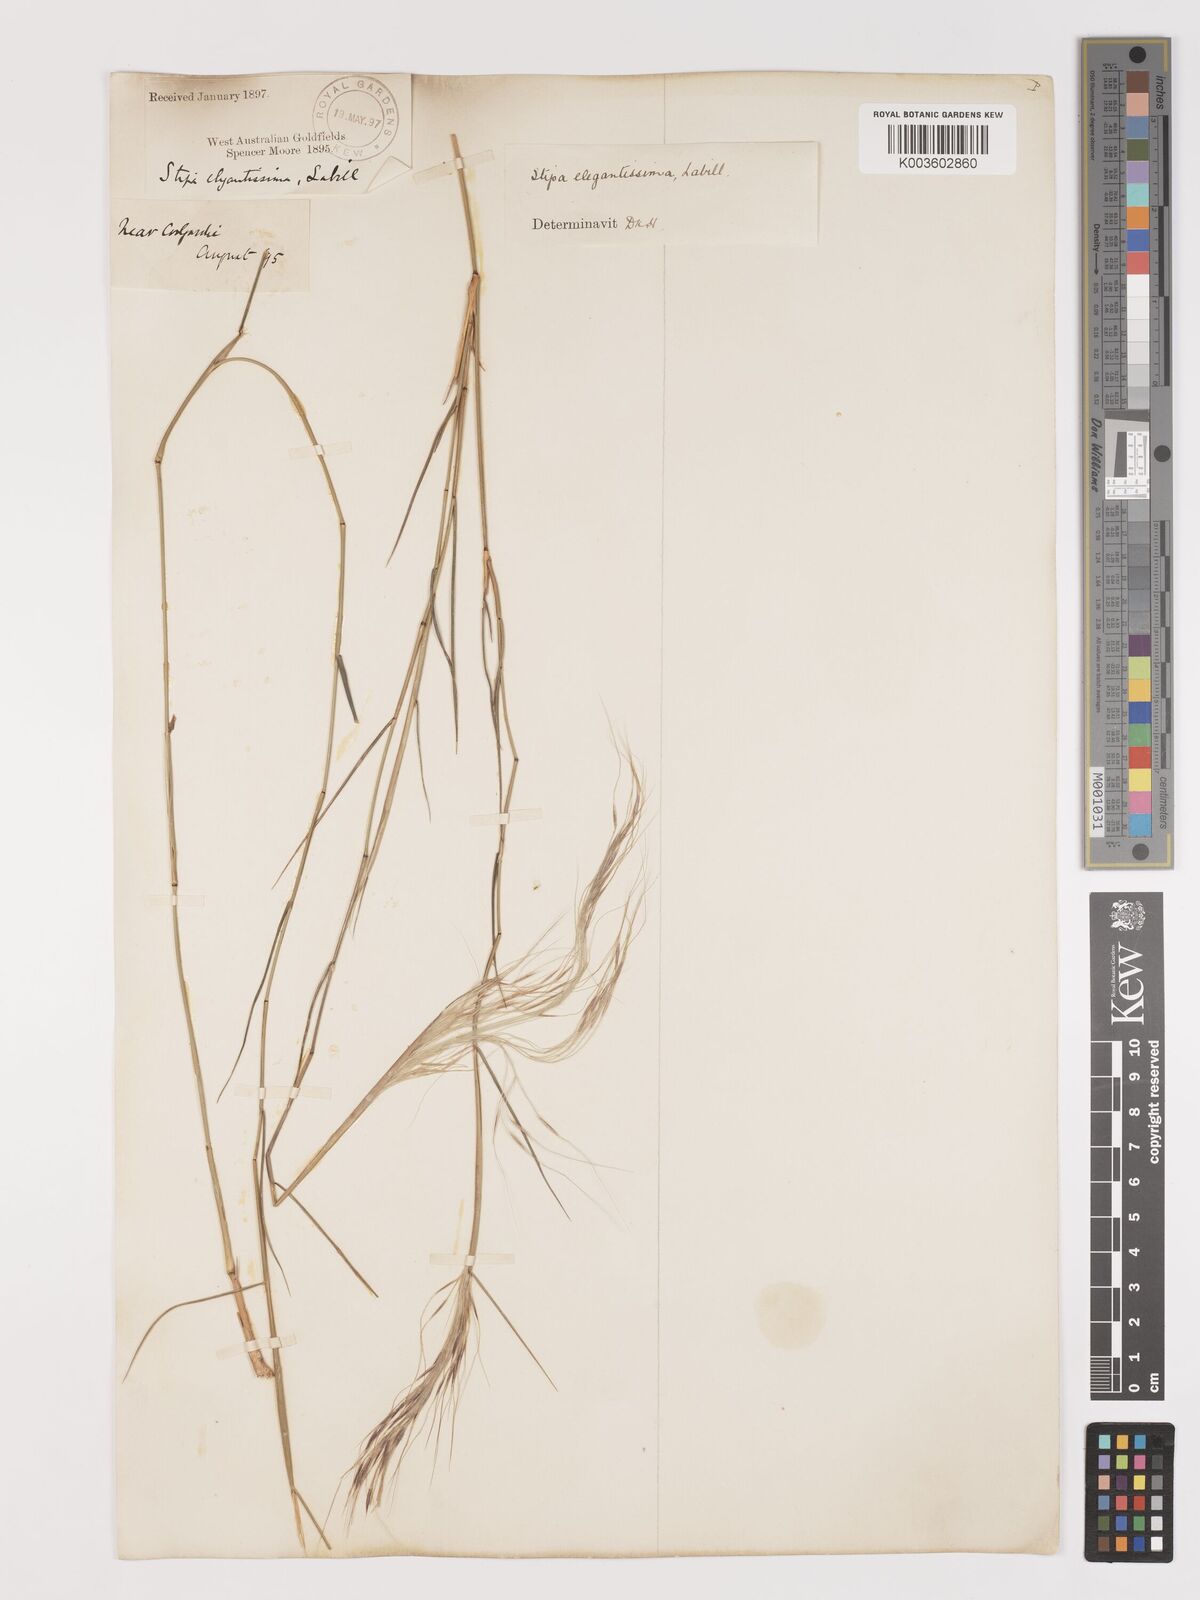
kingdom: Plantae
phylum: Tracheophyta
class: Liliopsida
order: Poales
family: Poaceae
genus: Austrostipa
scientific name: Austrostipa elegantissima
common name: Feather spear grass
